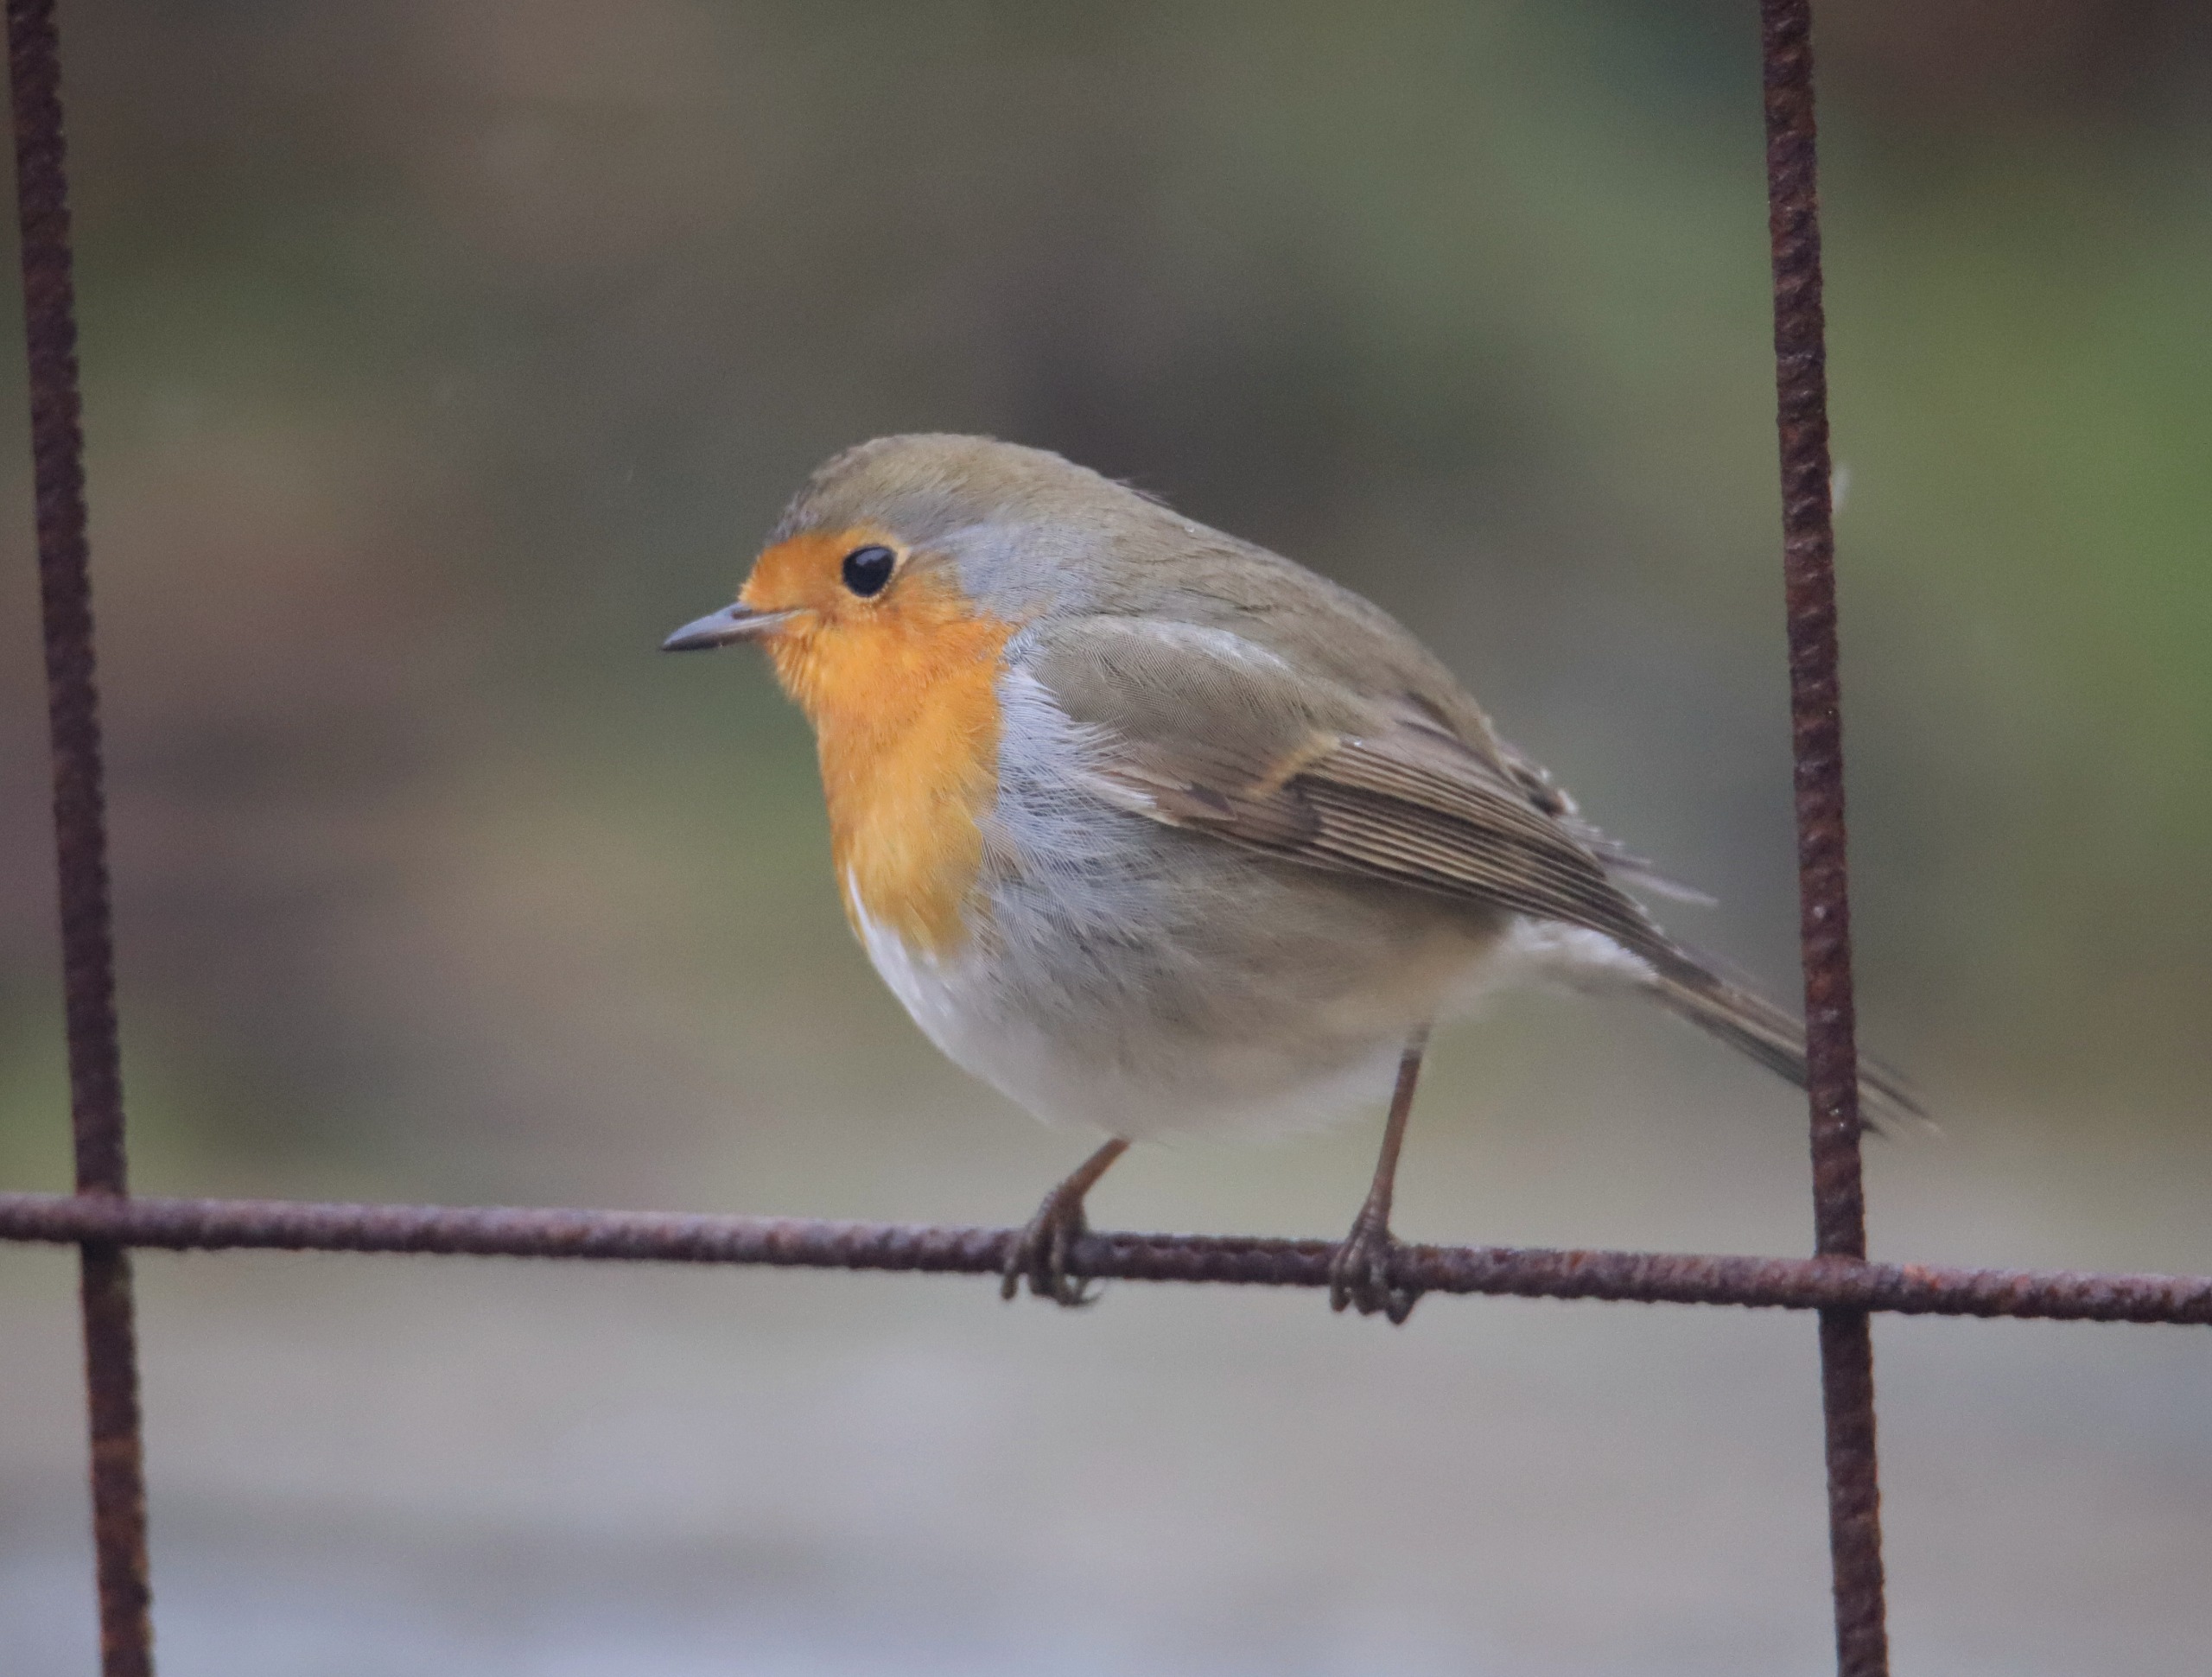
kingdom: Animalia
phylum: Chordata
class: Aves
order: Passeriformes
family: Muscicapidae
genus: Erithacus
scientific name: Erithacus rubecula
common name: Rødhals/rødkælk
